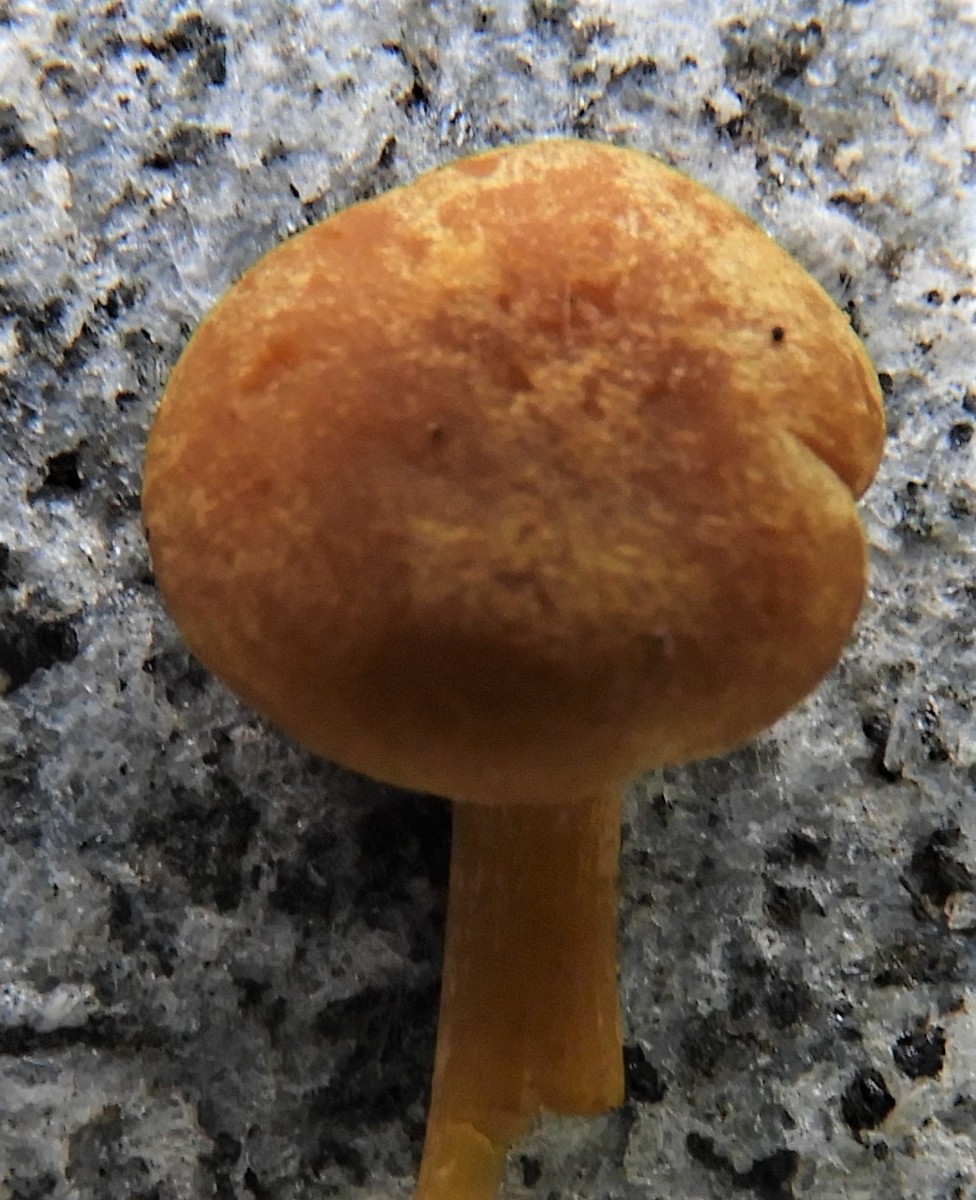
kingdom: Fungi
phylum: Basidiomycota
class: Agaricomycetes
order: Agaricales
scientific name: Agaricales
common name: champignonordenen
